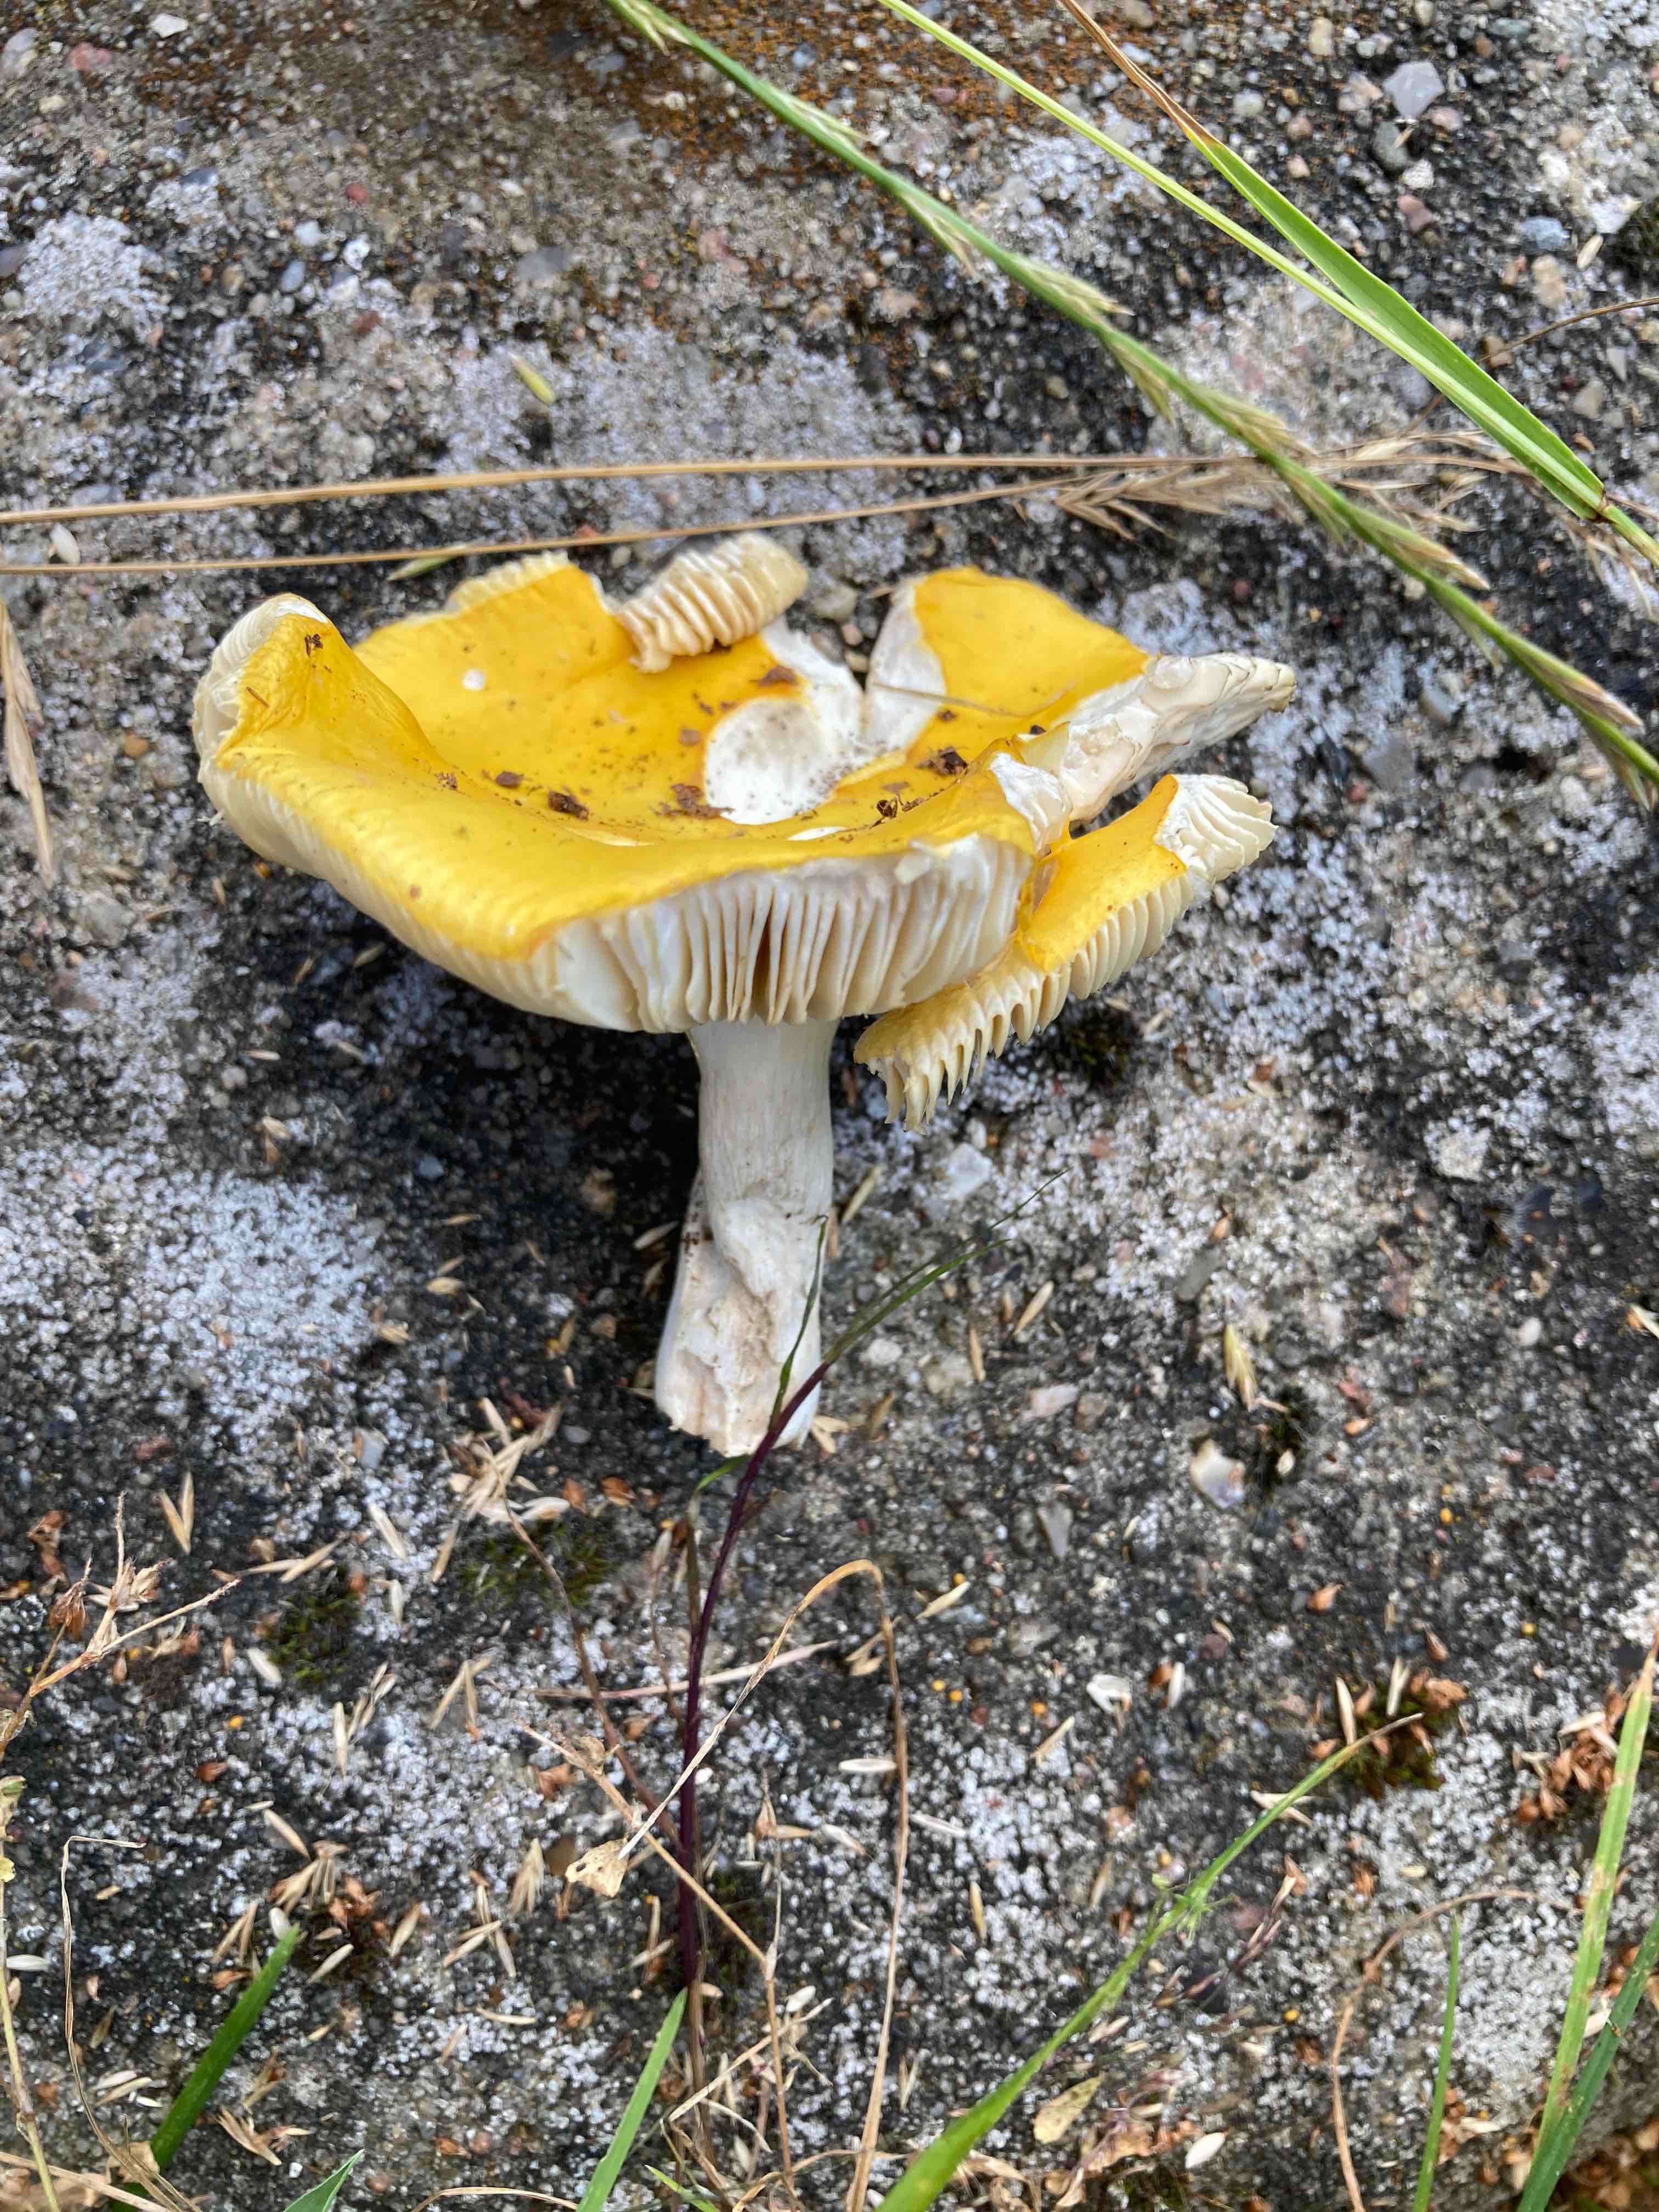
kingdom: Fungi
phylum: Basidiomycota
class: Agaricomycetes
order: Russulales
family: Russulaceae
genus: Russula
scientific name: Russula claroflava
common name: birke-skørhat
